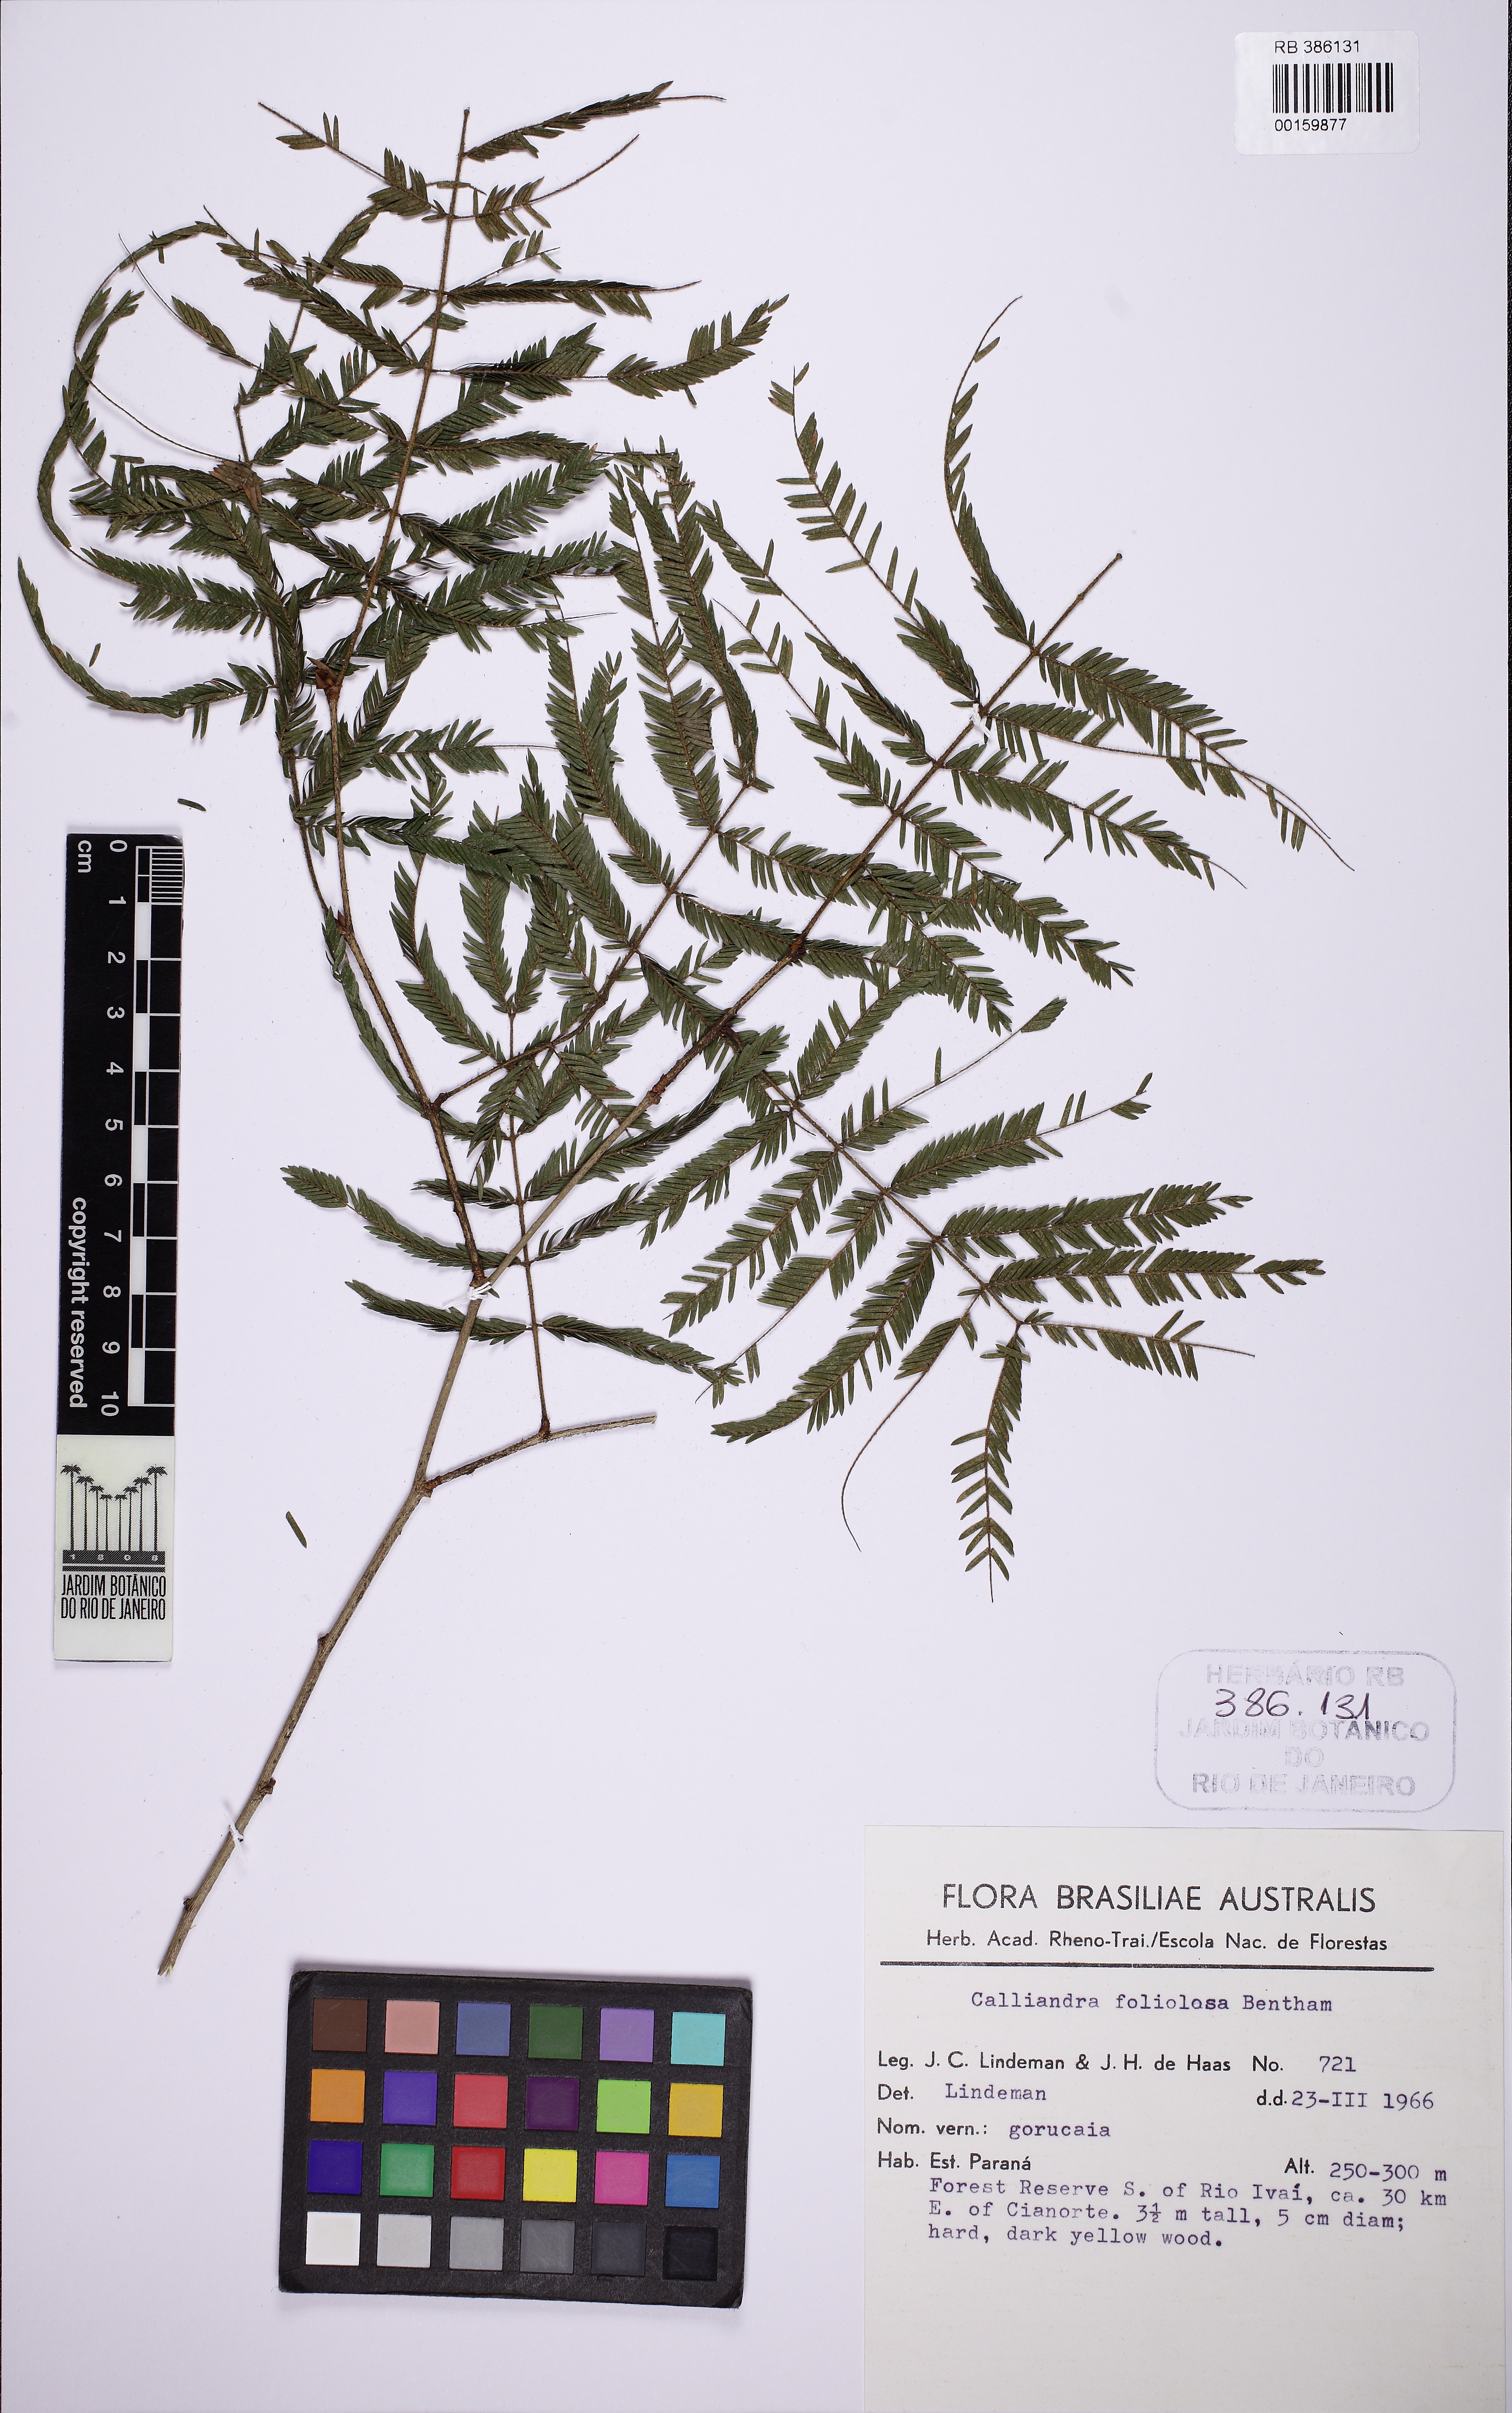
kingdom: Plantae
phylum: Tracheophyta
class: Magnoliopsida
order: Fabales
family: Fabaceae
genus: Calliandra
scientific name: Calliandra foliolosa
